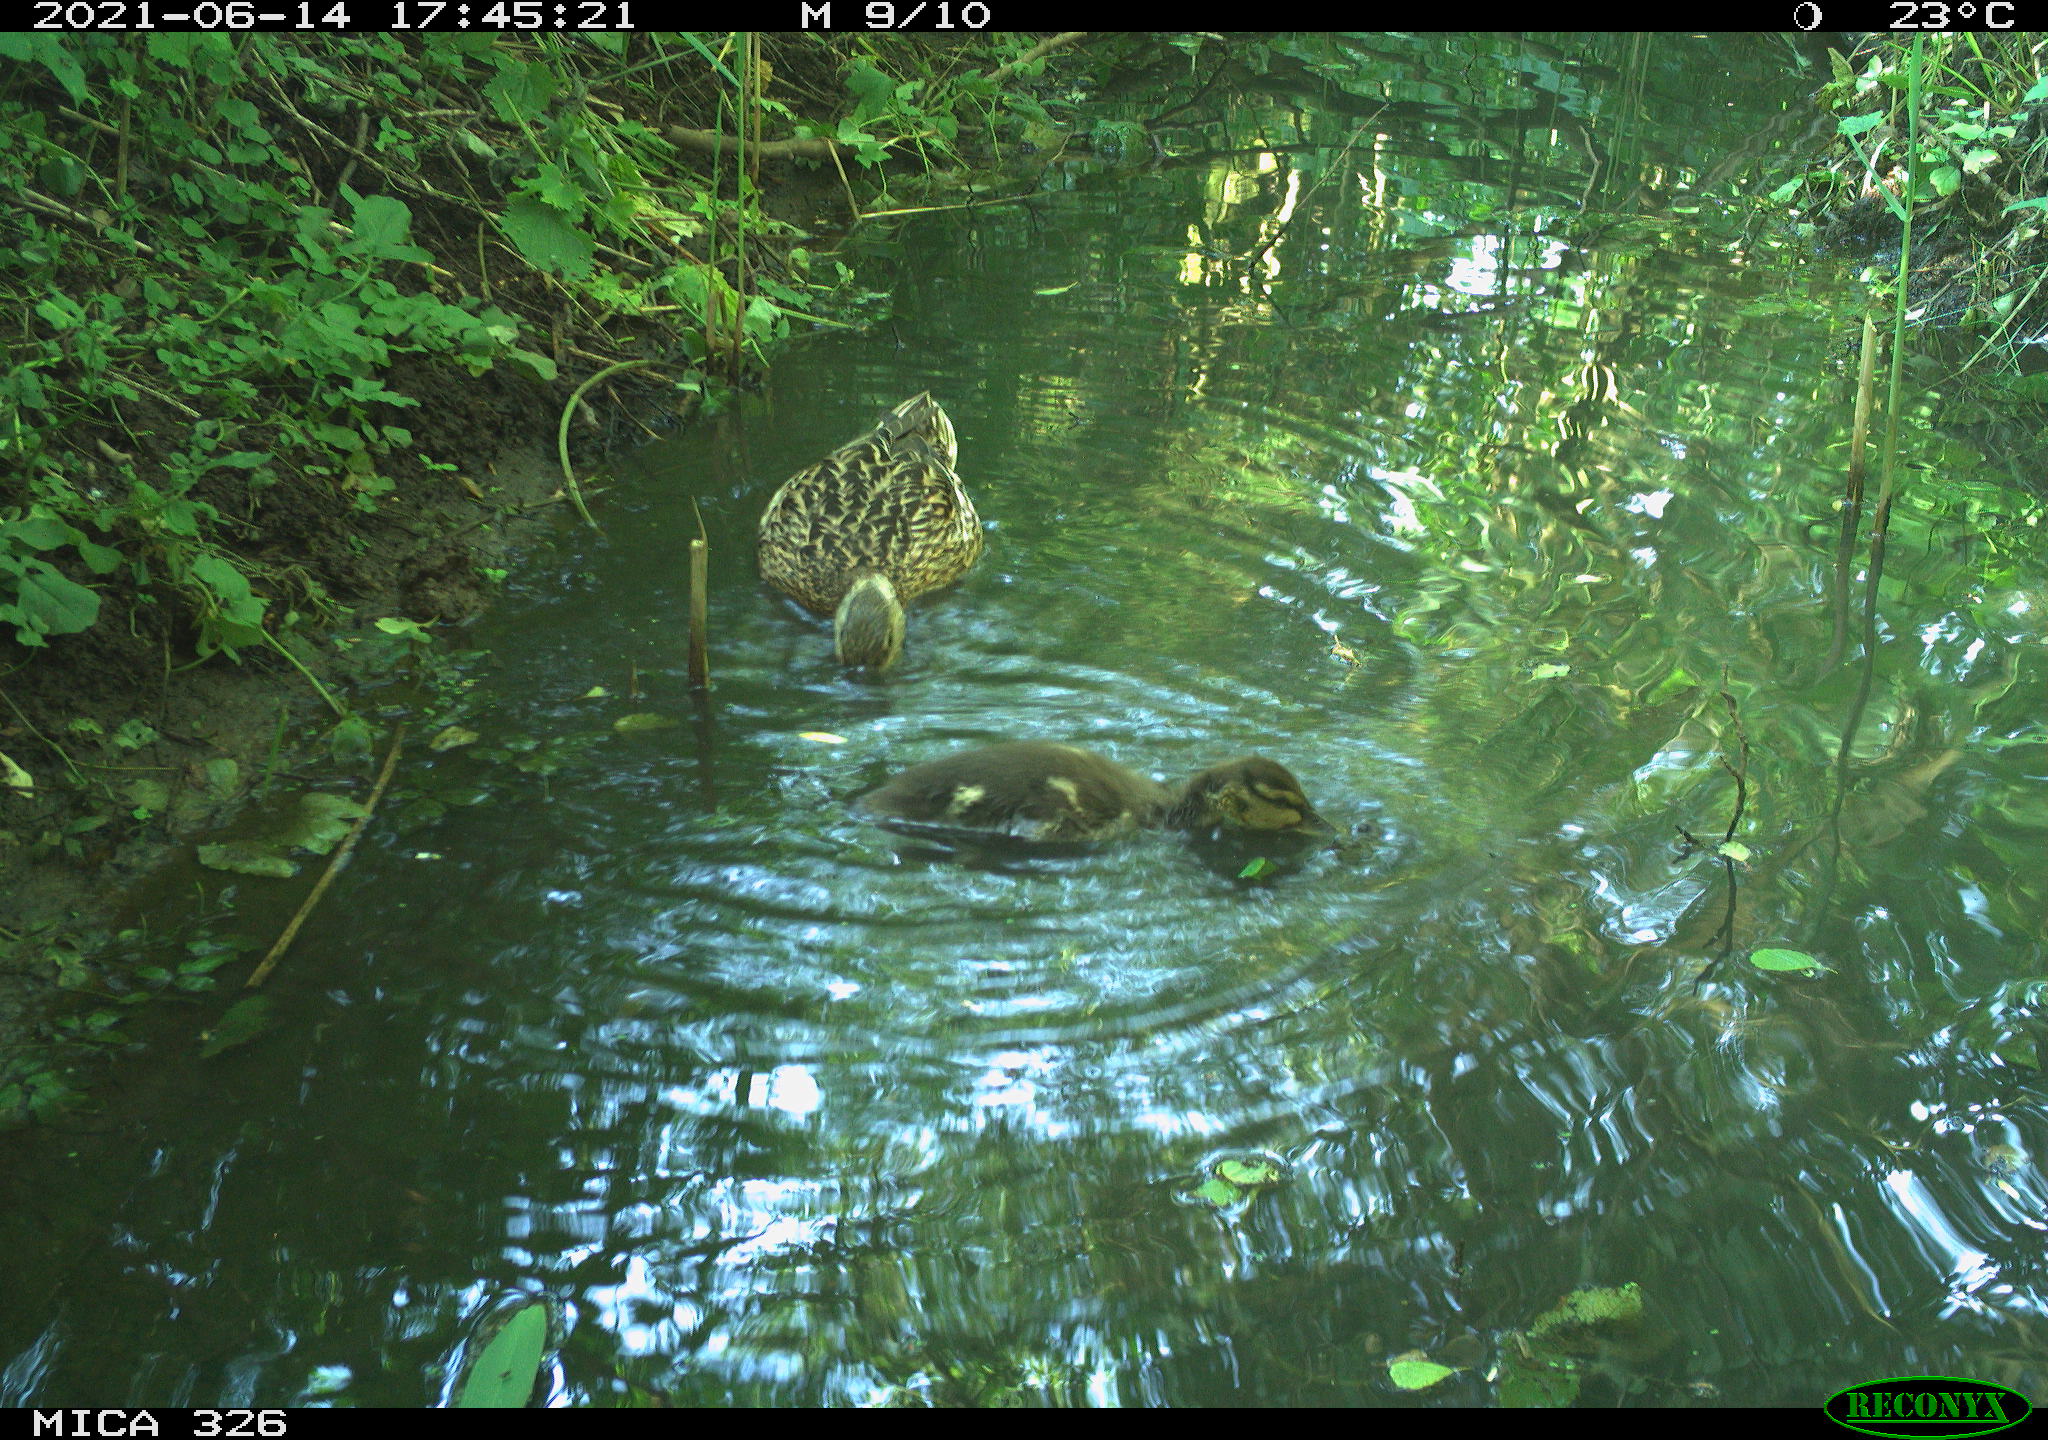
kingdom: Animalia
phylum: Chordata
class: Aves
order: Anseriformes
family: Anatidae
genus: Anas
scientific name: Anas platyrhynchos
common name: Mallard
